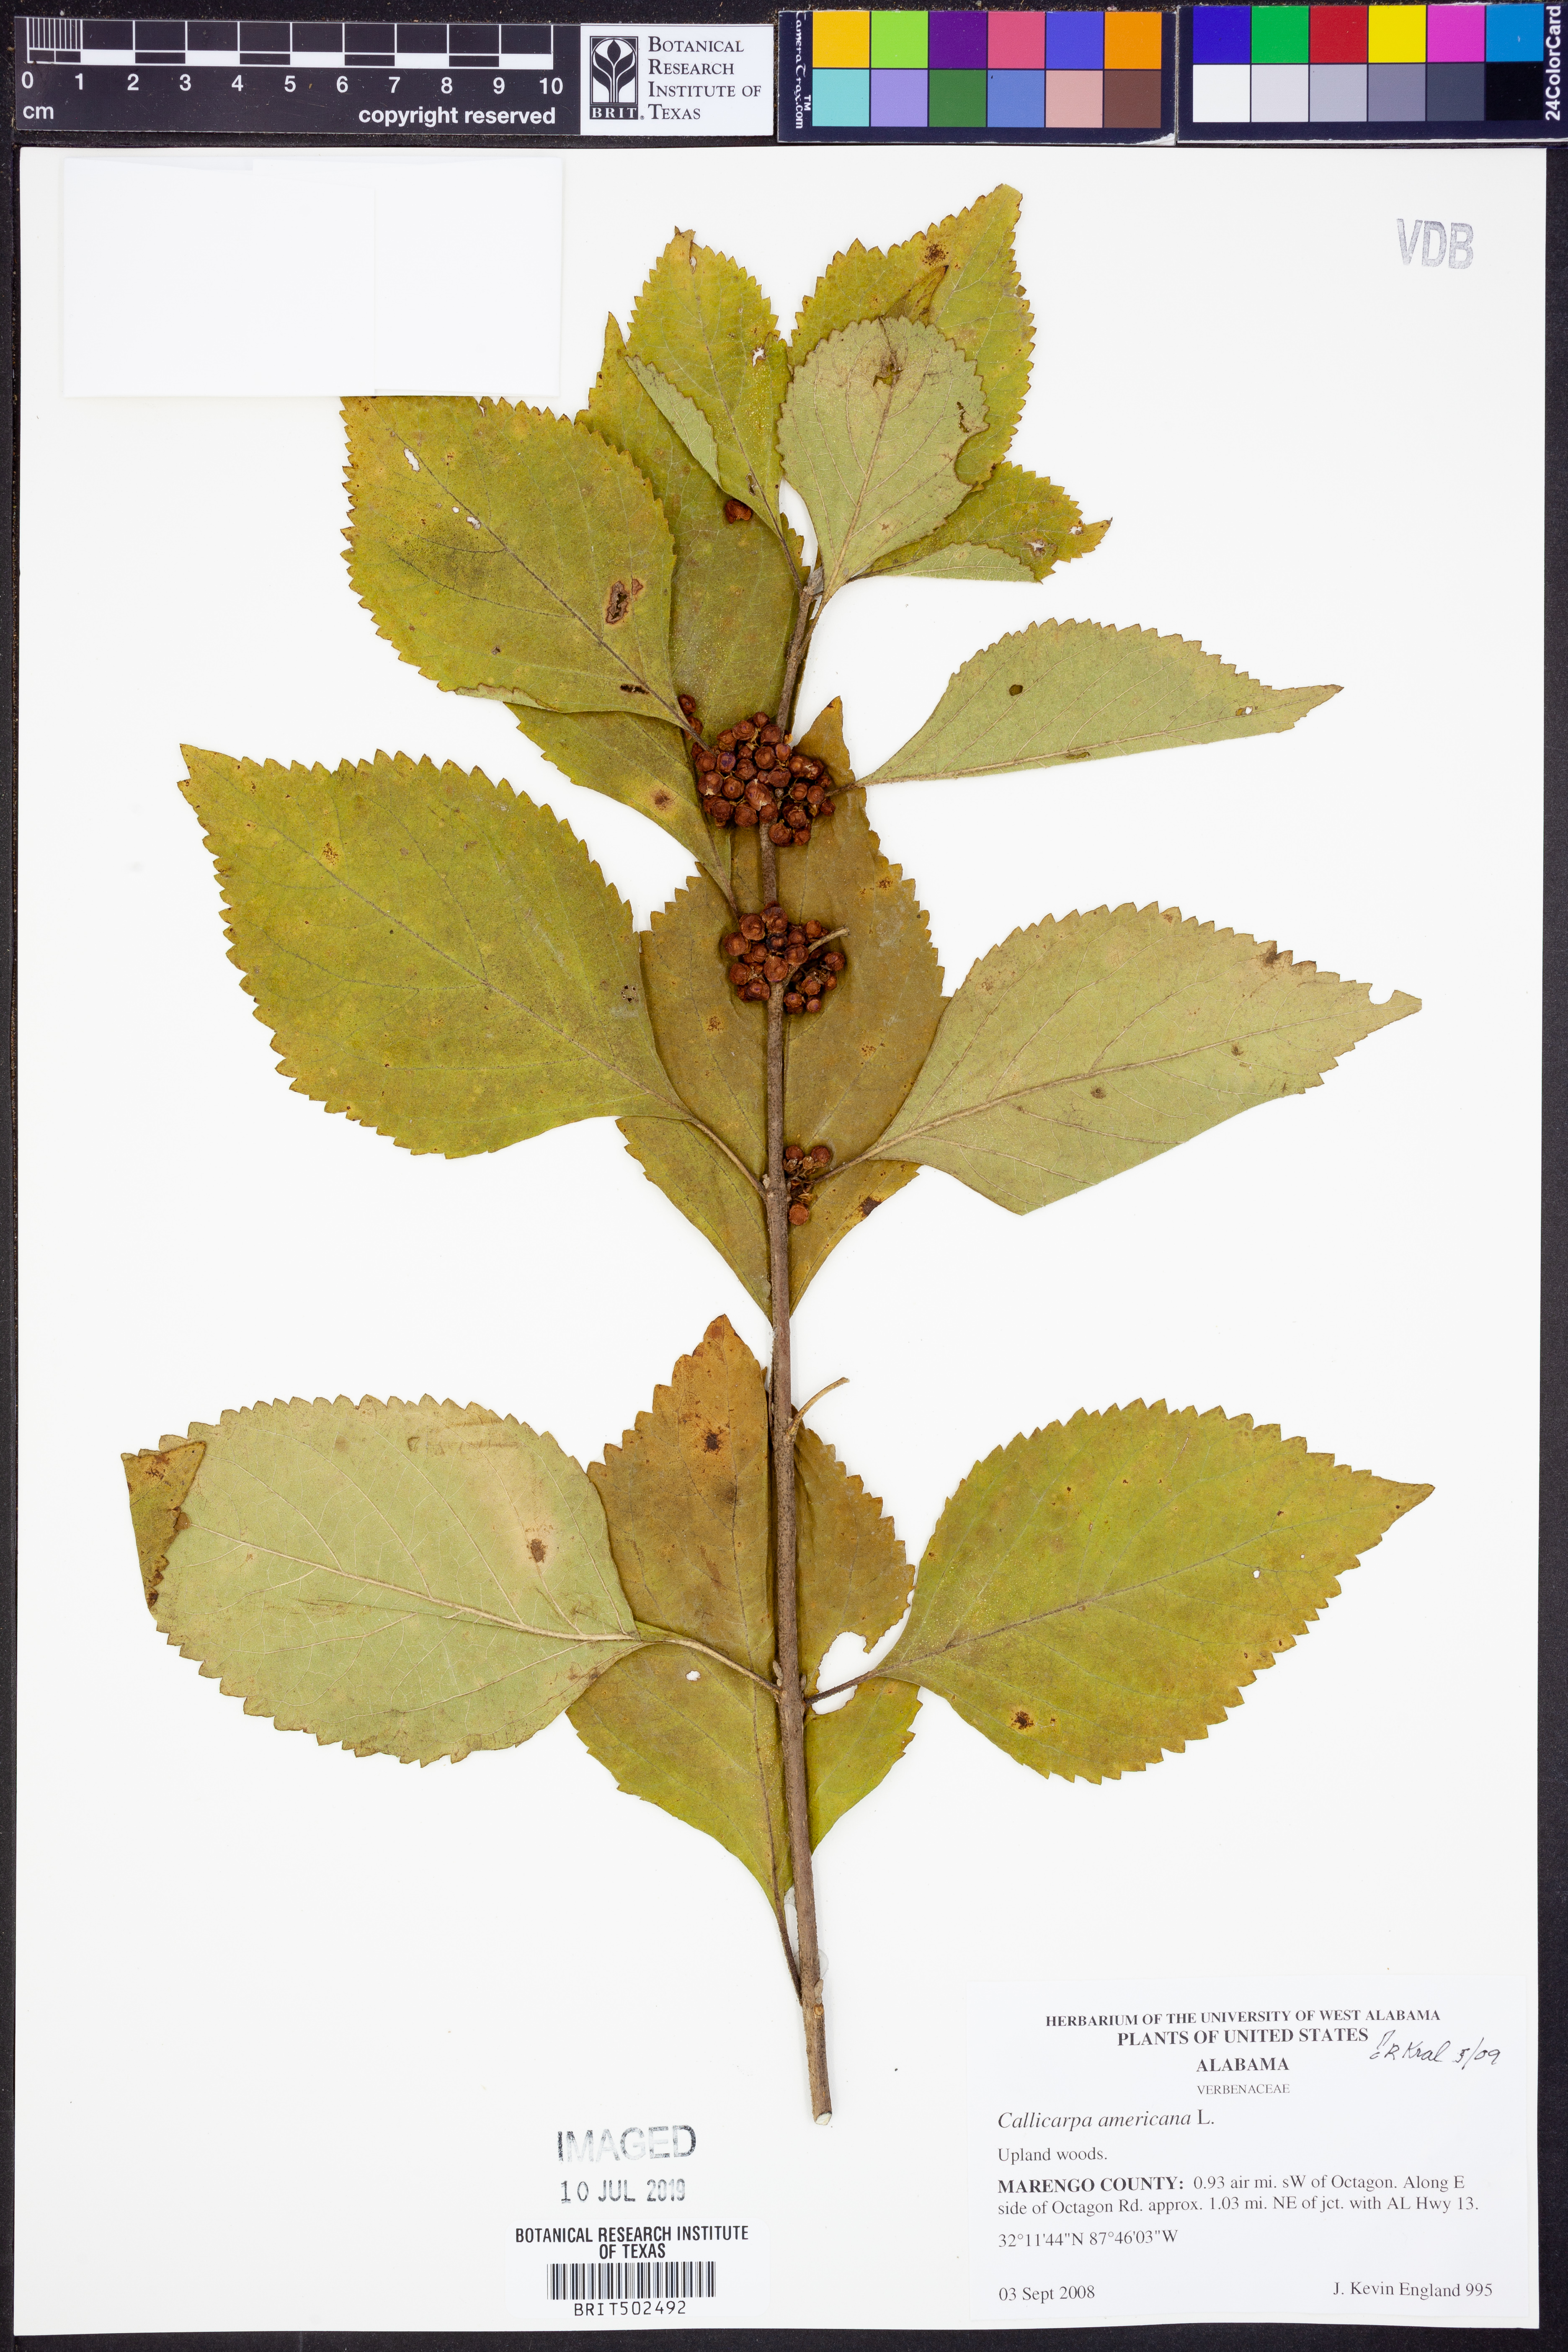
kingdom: Plantae
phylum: Tracheophyta
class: Magnoliopsida
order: Lamiales
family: Lamiaceae
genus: Callicarpa
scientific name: Callicarpa americana
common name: American beautyberry
